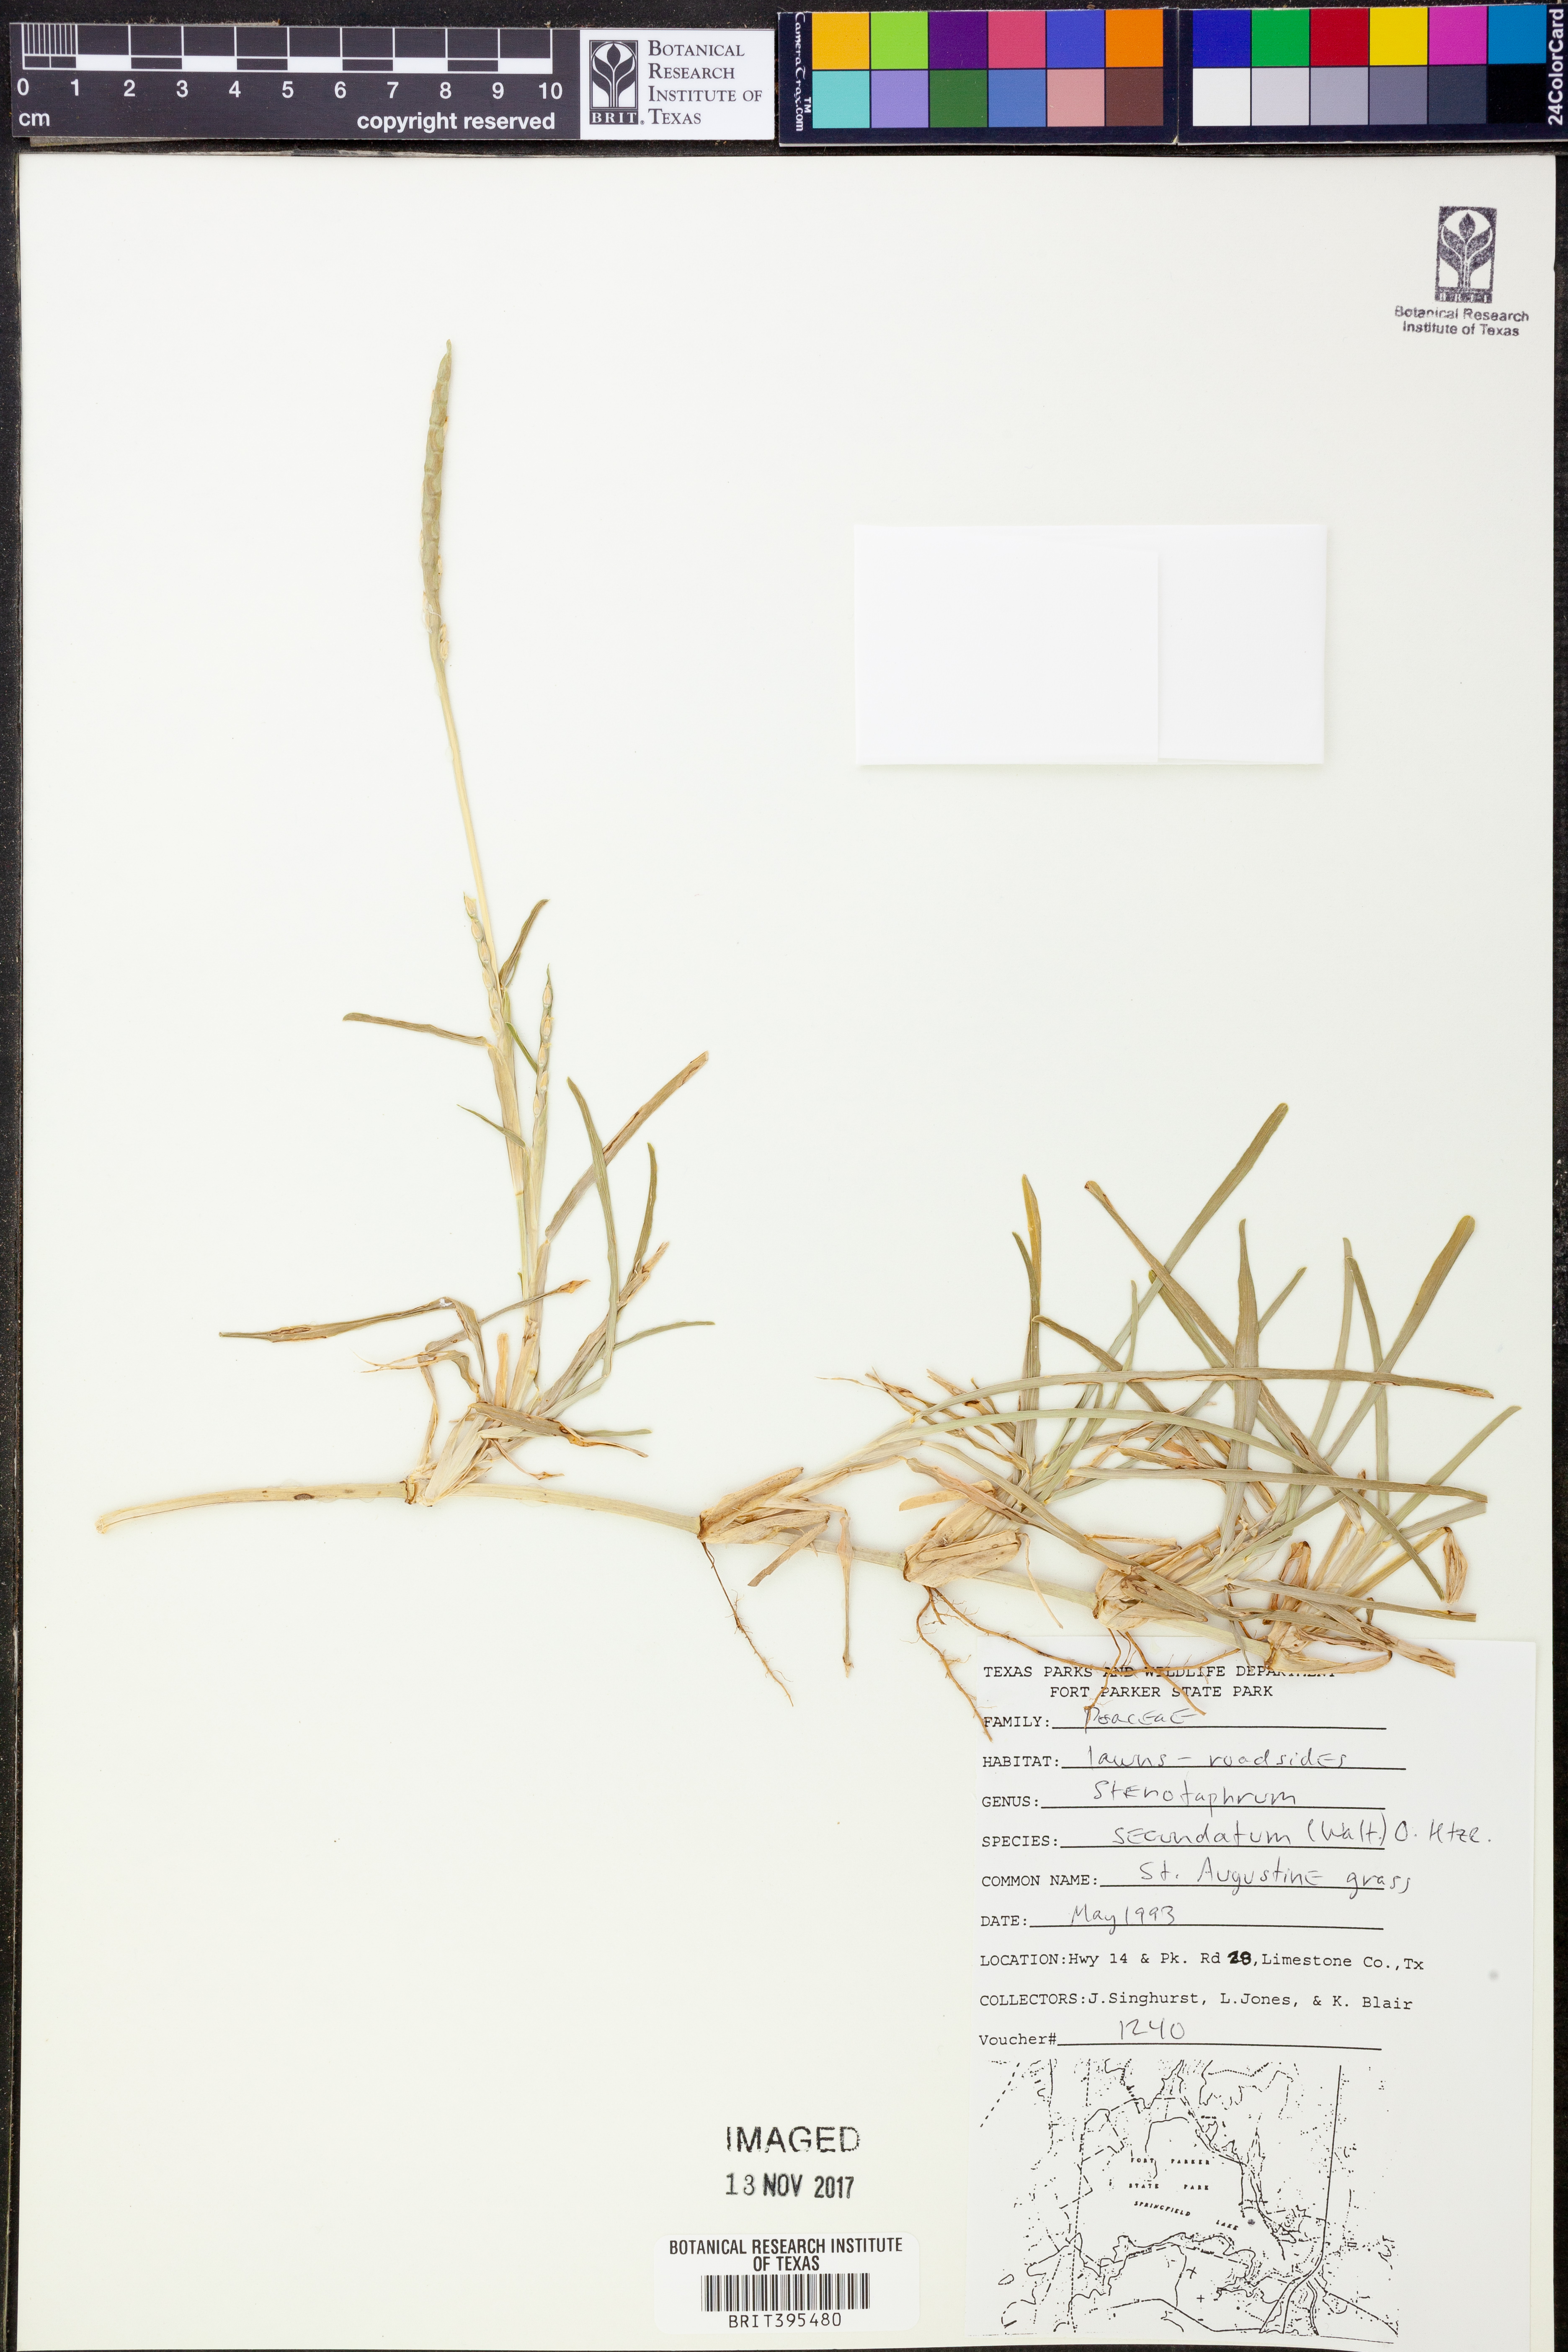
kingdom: Plantae
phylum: Tracheophyta
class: Liliopsida
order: Poales
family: Poaceae
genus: Stenotaphrum
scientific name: Stenotaphrum secundatum
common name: St. augustine grass
